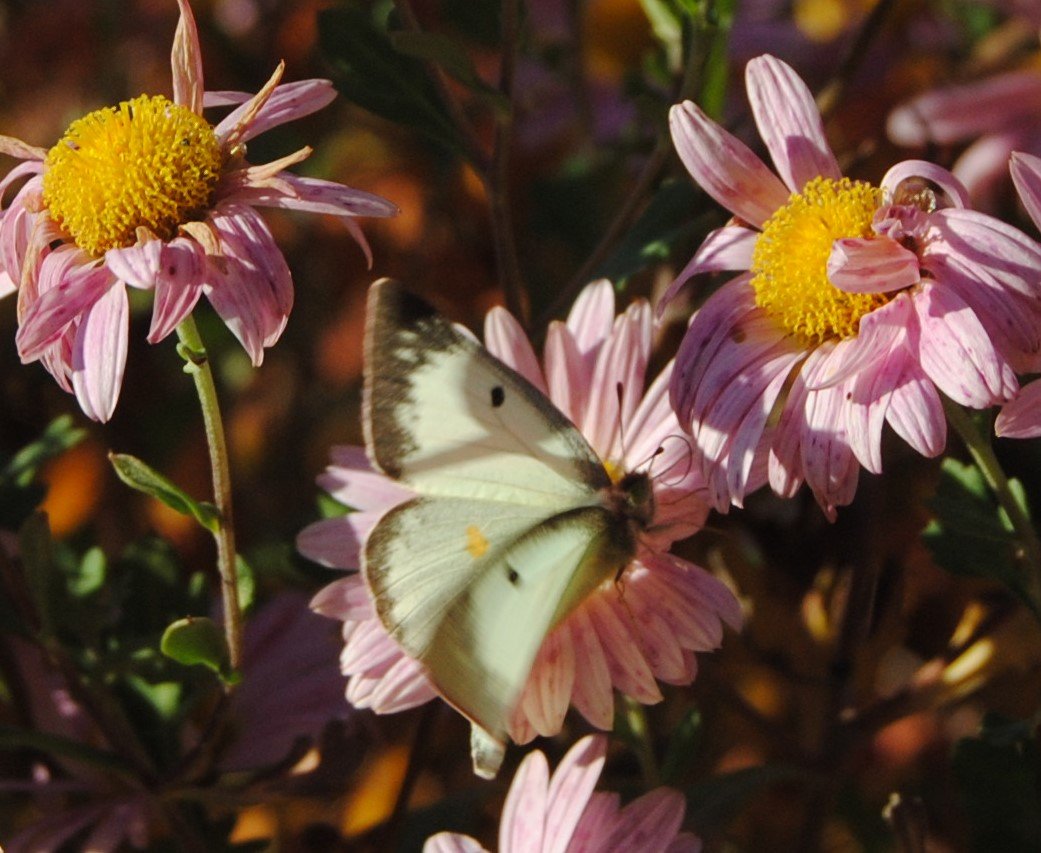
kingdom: Animalia
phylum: Arthropoda
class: Insecta
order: Lepidoptera
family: Pieridae
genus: Colias
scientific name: Colias philodice
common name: Clouded Sulphur
